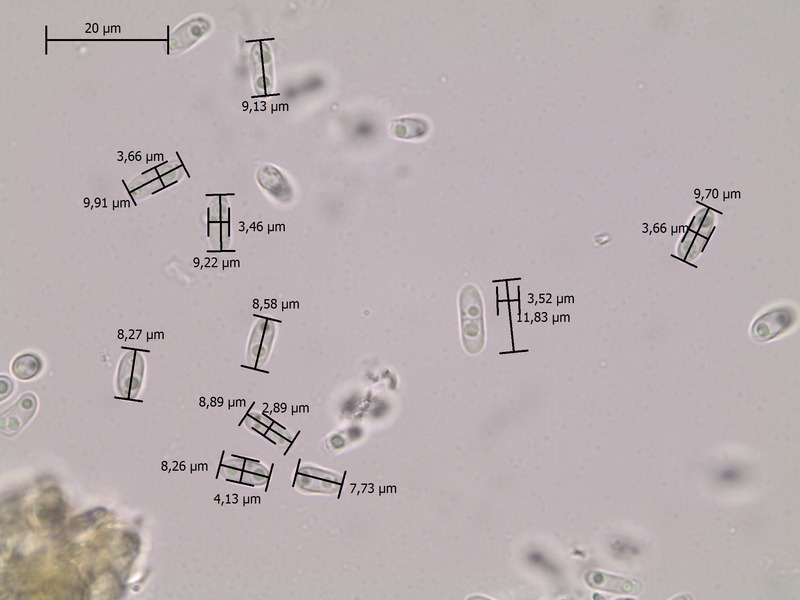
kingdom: Fungi
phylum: Ascomycota
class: Dothideomycetes
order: Pleosporales
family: Didymellaceae
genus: Boeremia
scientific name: Boeremia exigua
